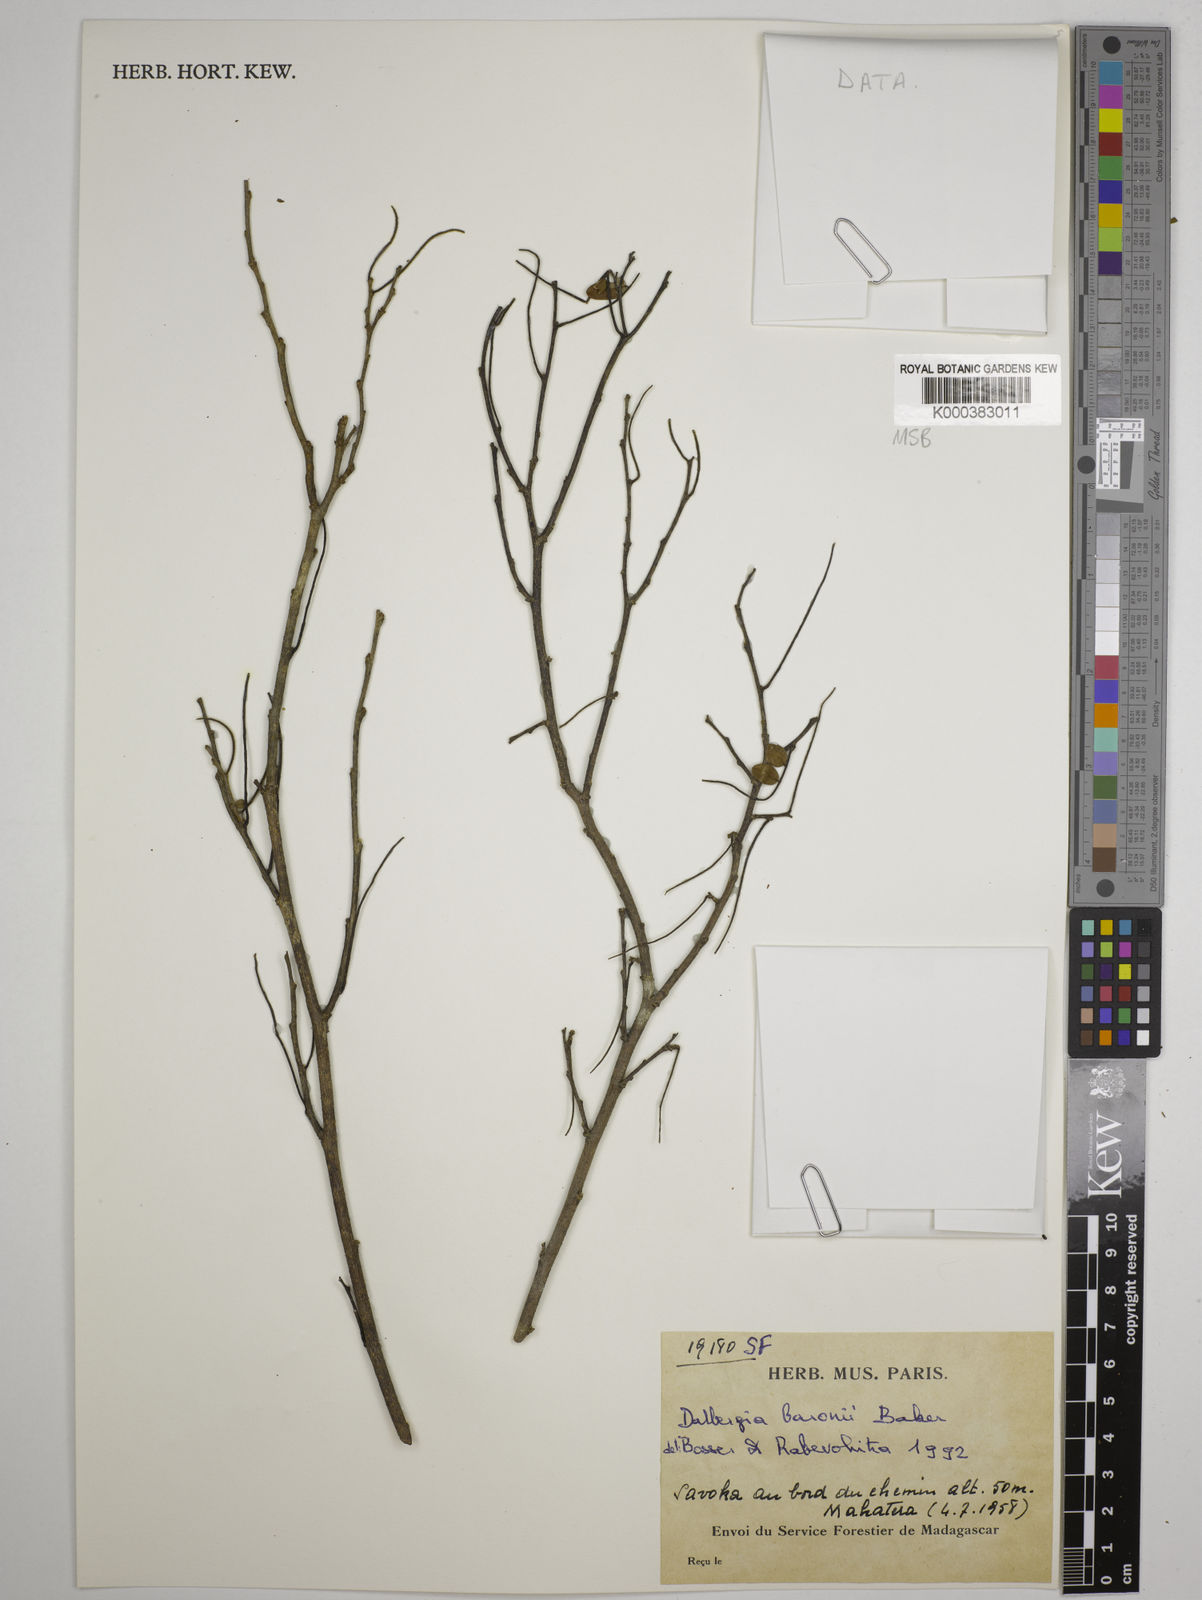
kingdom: Plantae
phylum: Tracheophyta
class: Magnoliopsida
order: Fabales
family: Fabaceae
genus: Dalbergia
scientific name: Dalbergia baronii
